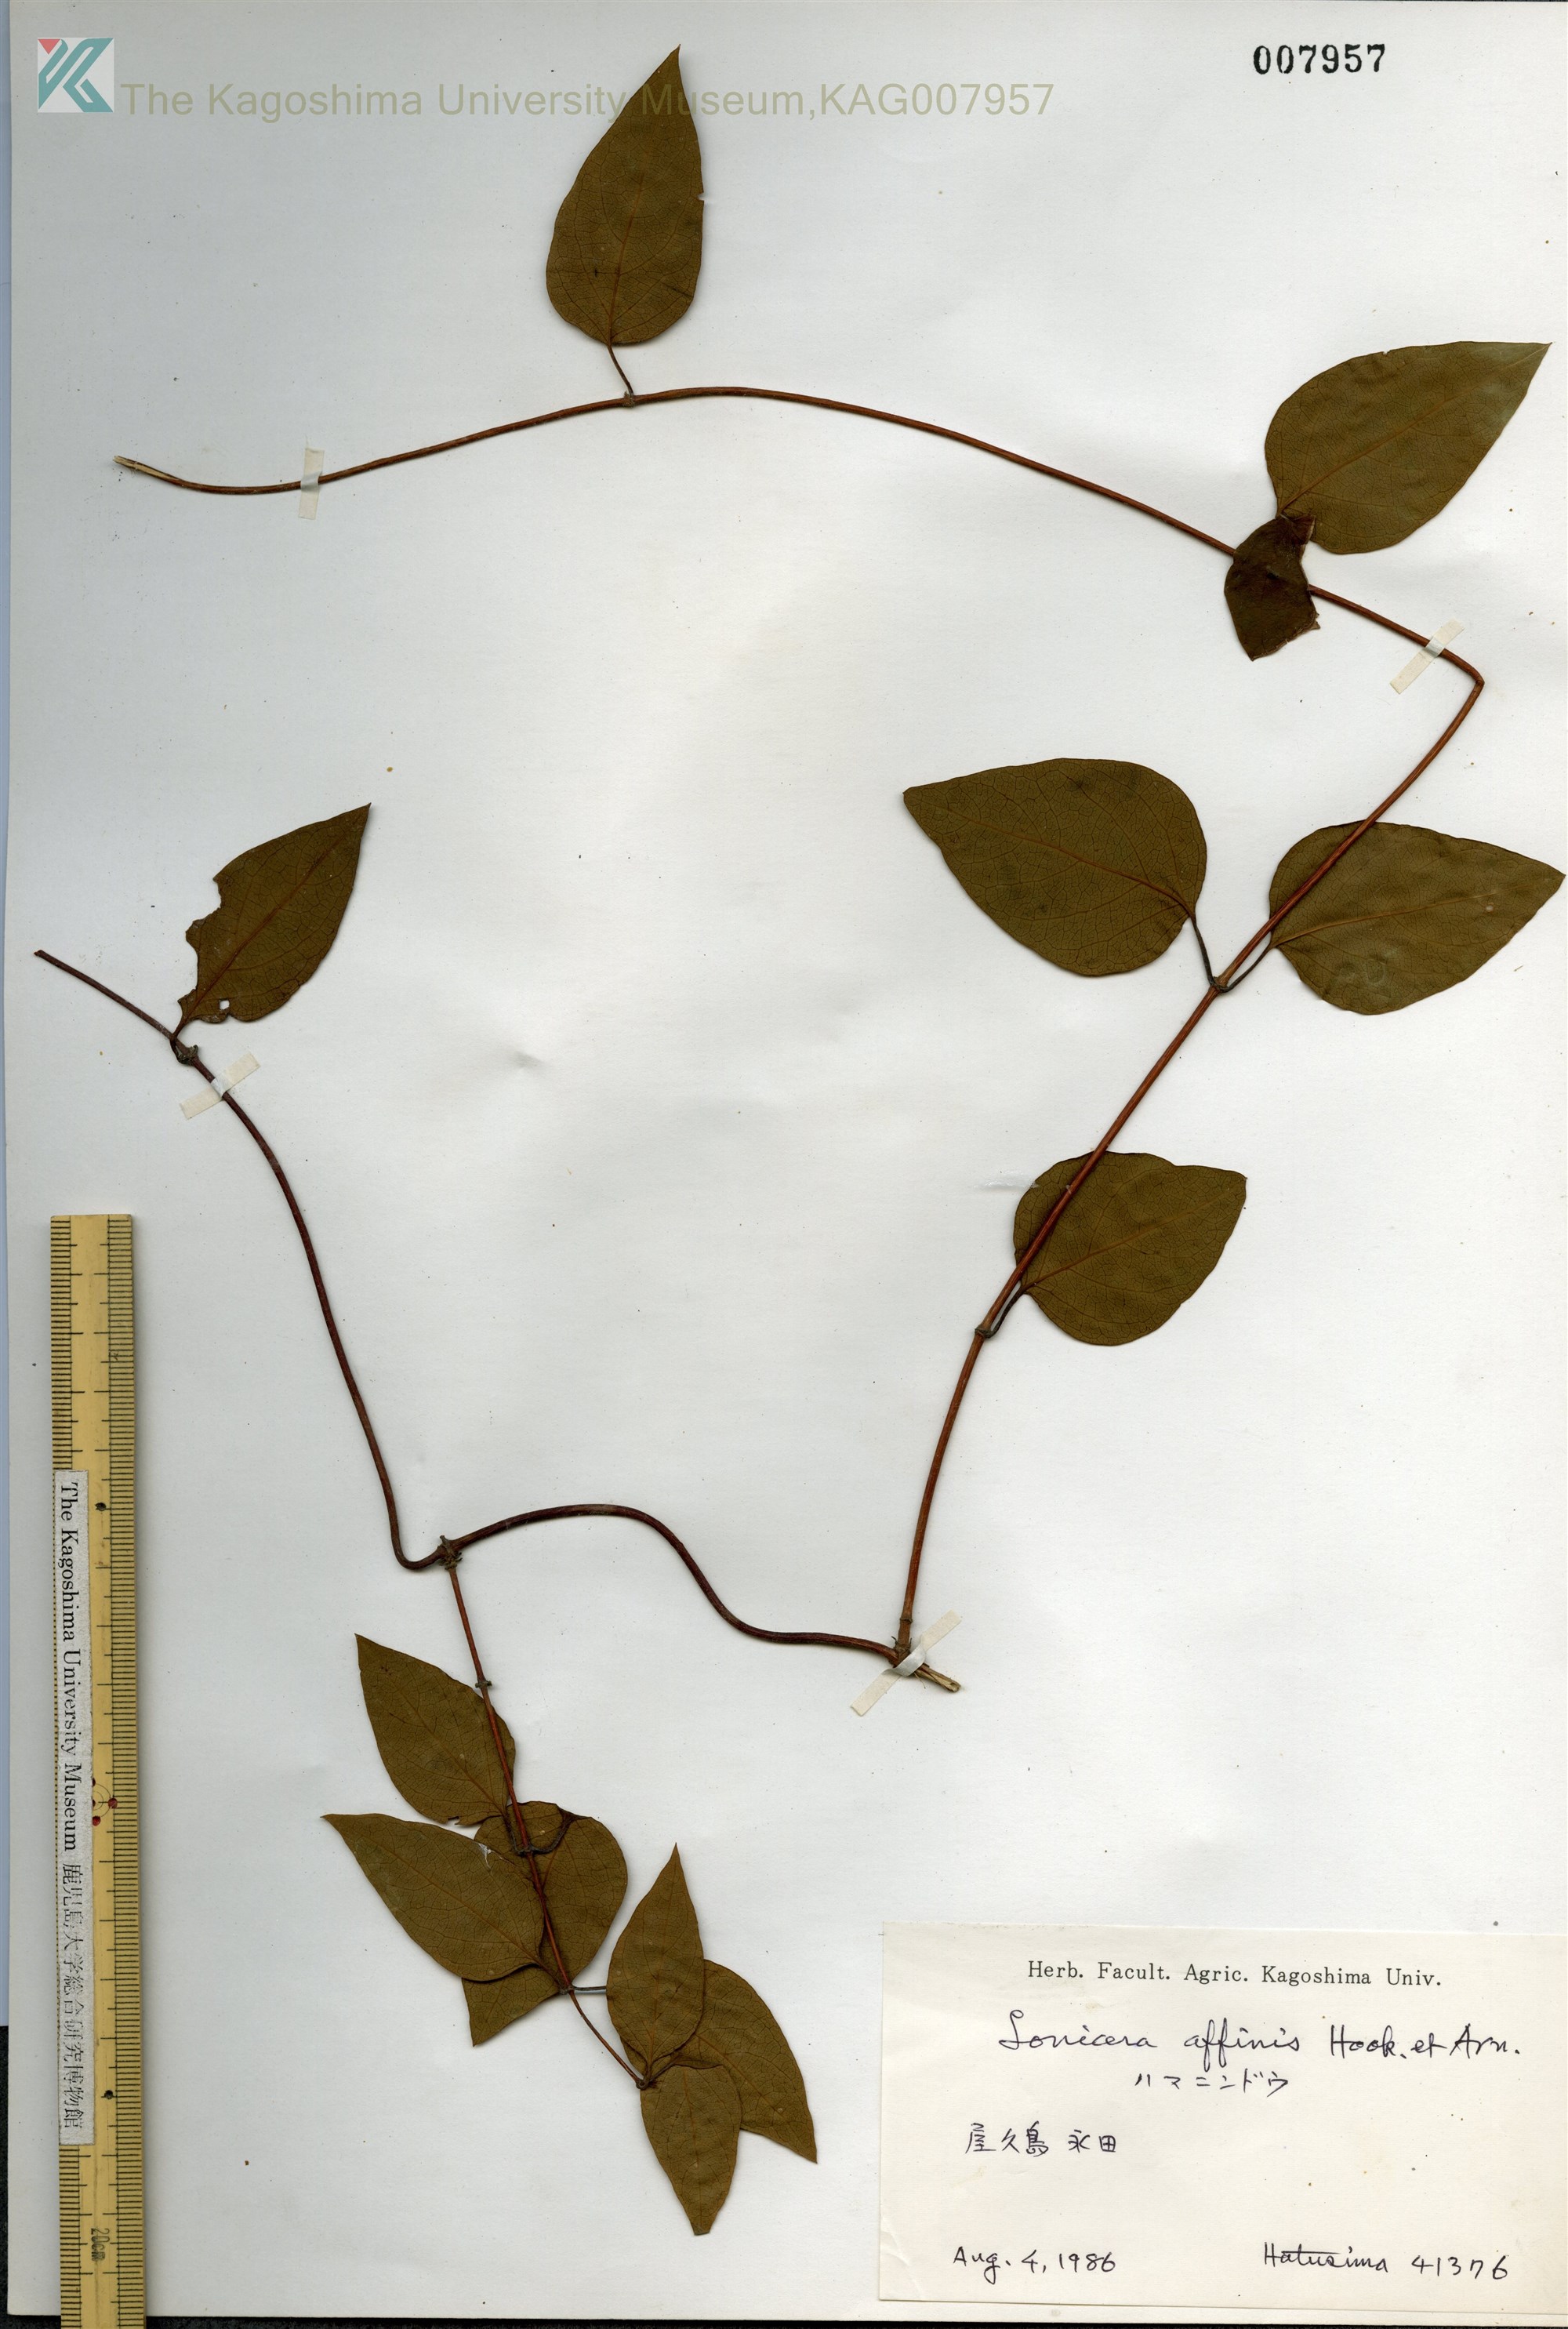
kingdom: Plantae
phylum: Tracheophyta
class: Magnoliopsida
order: Dipsacales
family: Caprifoliaceae
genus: Lonicera
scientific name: Lonicera affinis
